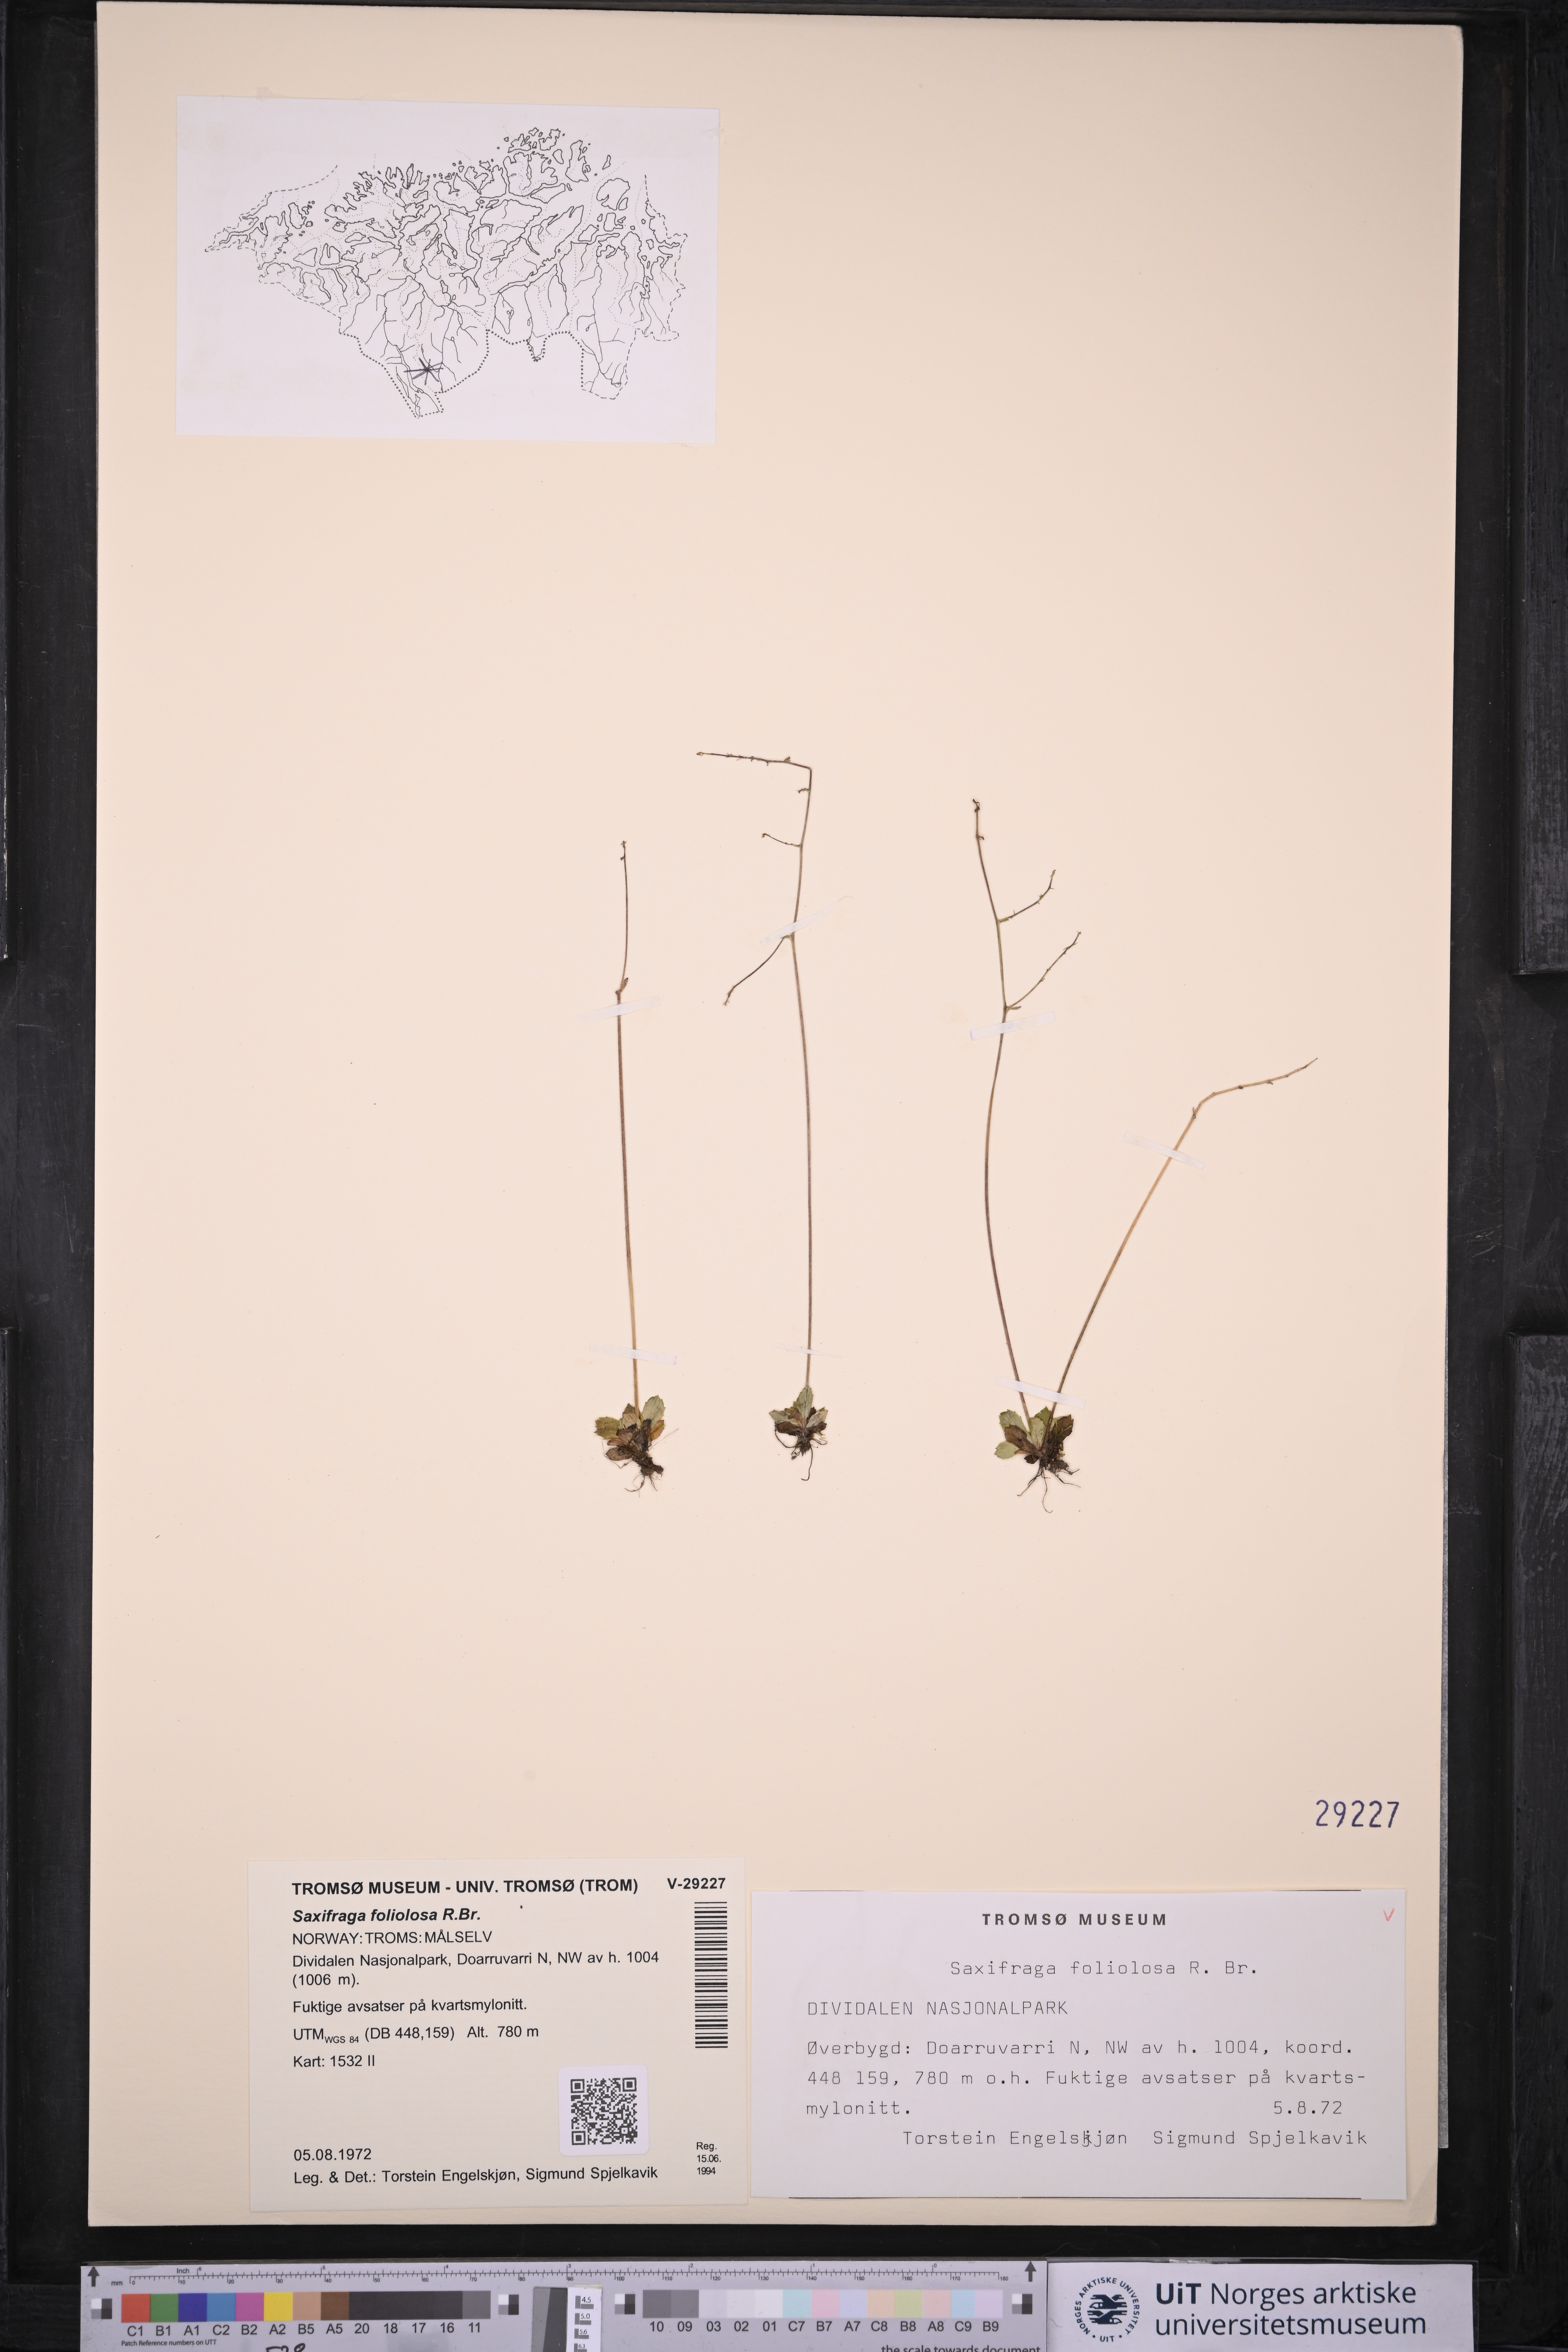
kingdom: Plantae
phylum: Tracheophyta
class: Magnoliopsida
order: Saxifragales
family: Saxifragaceae
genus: Micranthes
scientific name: Micranthes foliolosa
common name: Leafystem saxifrage
